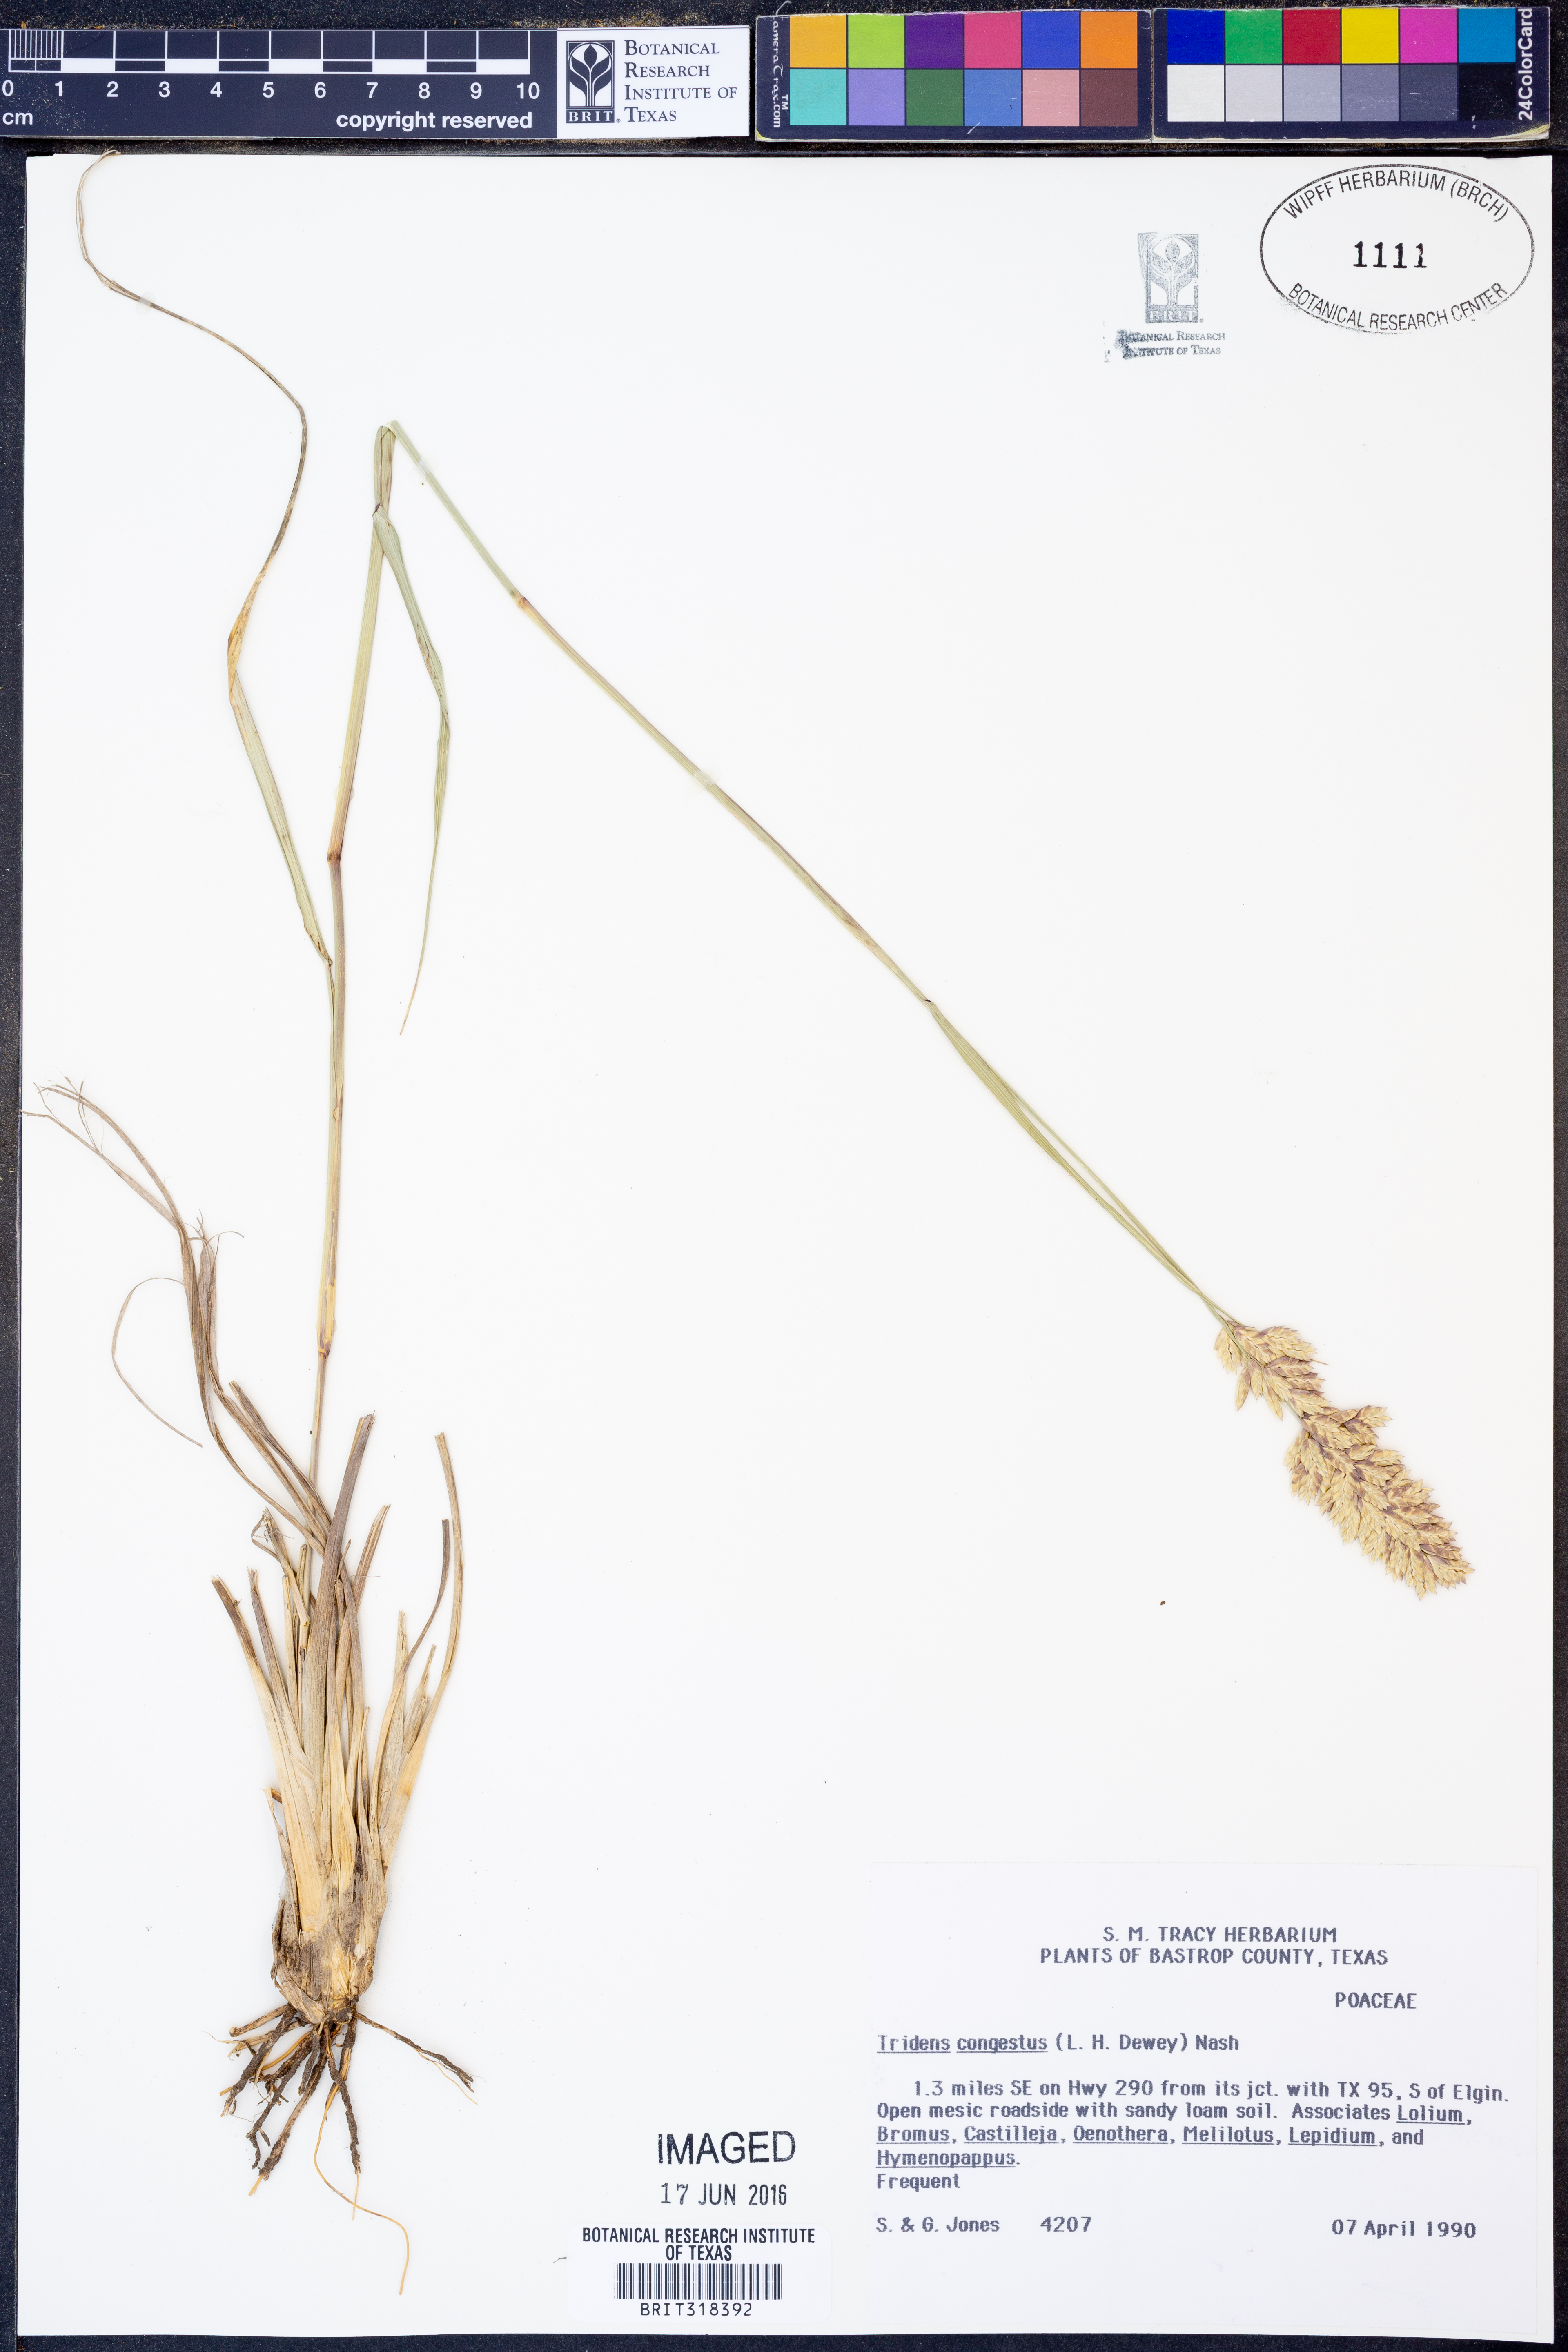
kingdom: Plantae
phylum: Tracheophyta
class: Liliopsida
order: Poales
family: Poaceae
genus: Tridens
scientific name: Tridens congestus
